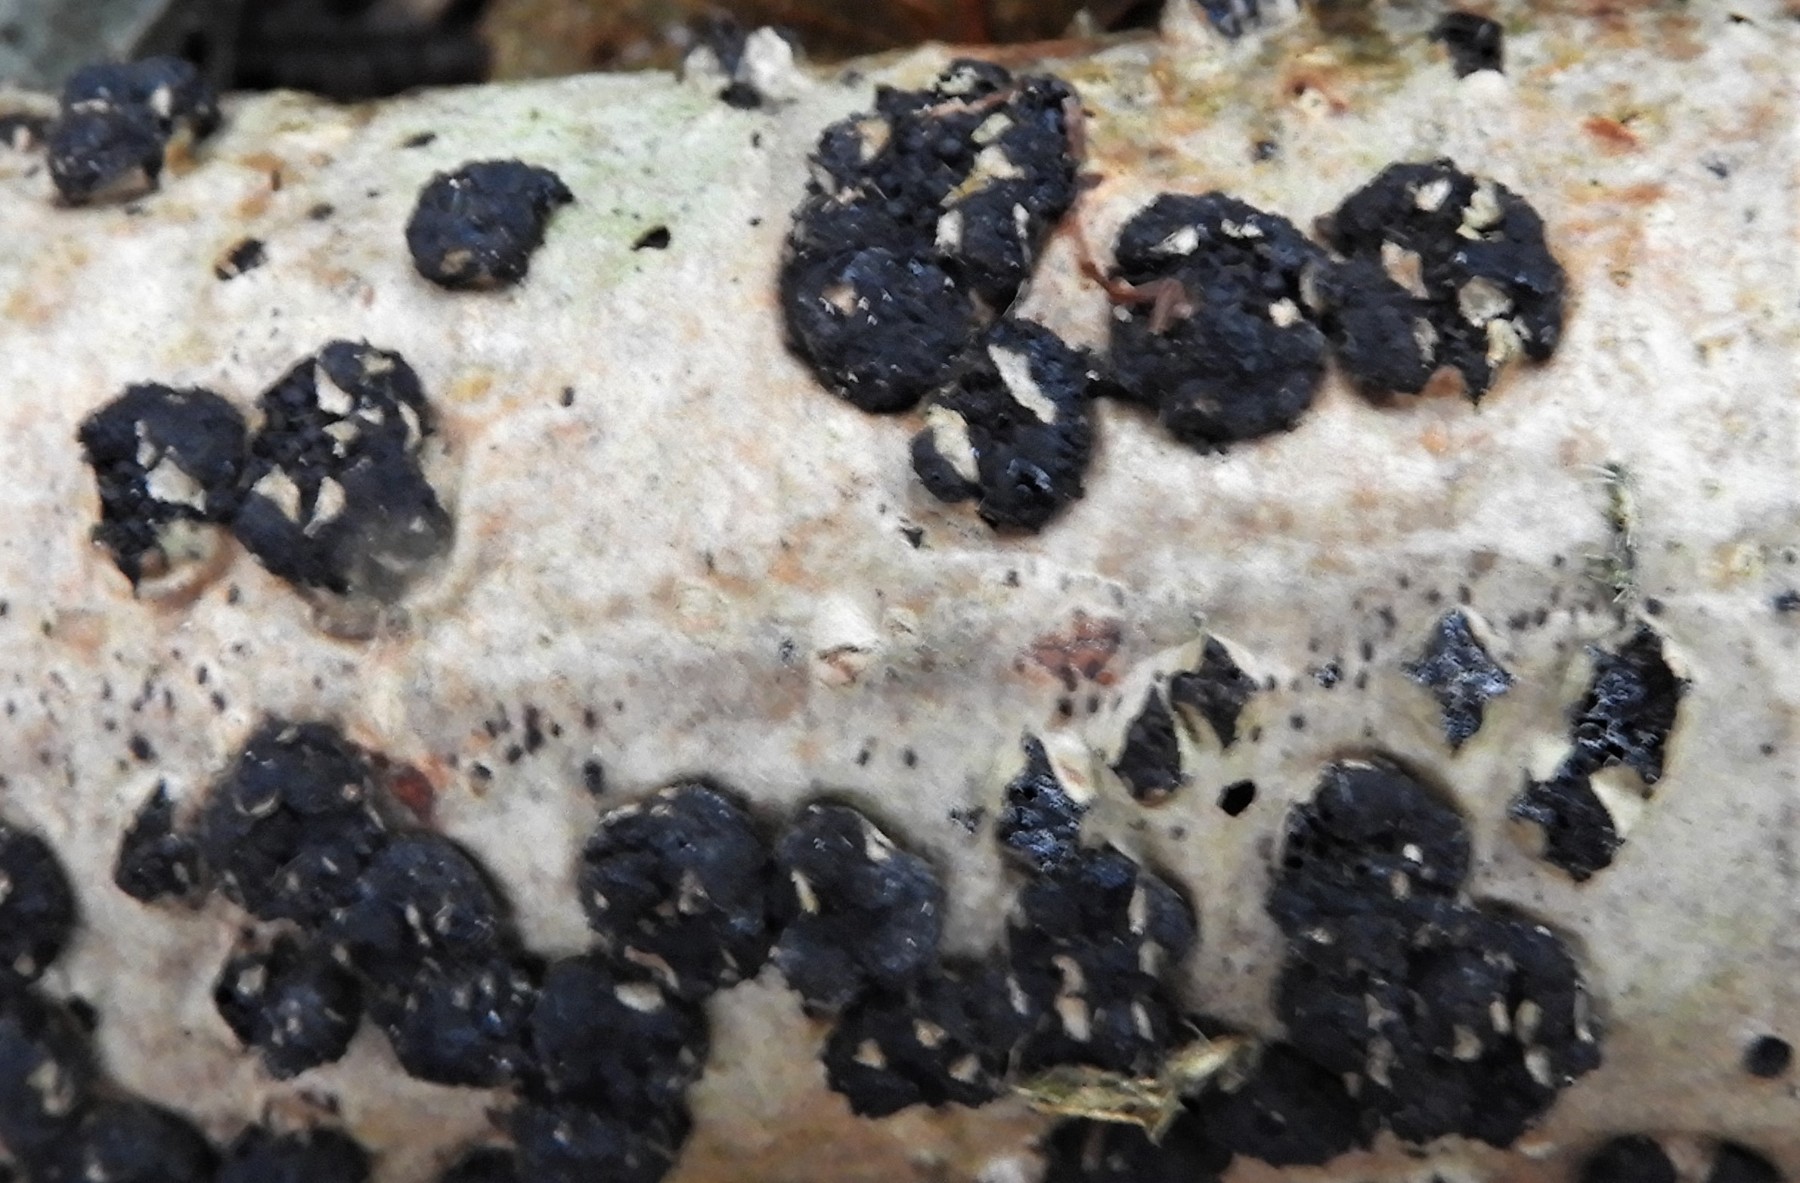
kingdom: Fungi
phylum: Ascomycota
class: Sordariomycetes
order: Xylariales
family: Diatrypaceae
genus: Diatrypella
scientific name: Diatrypella quercina
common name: ege-kulskorpe
